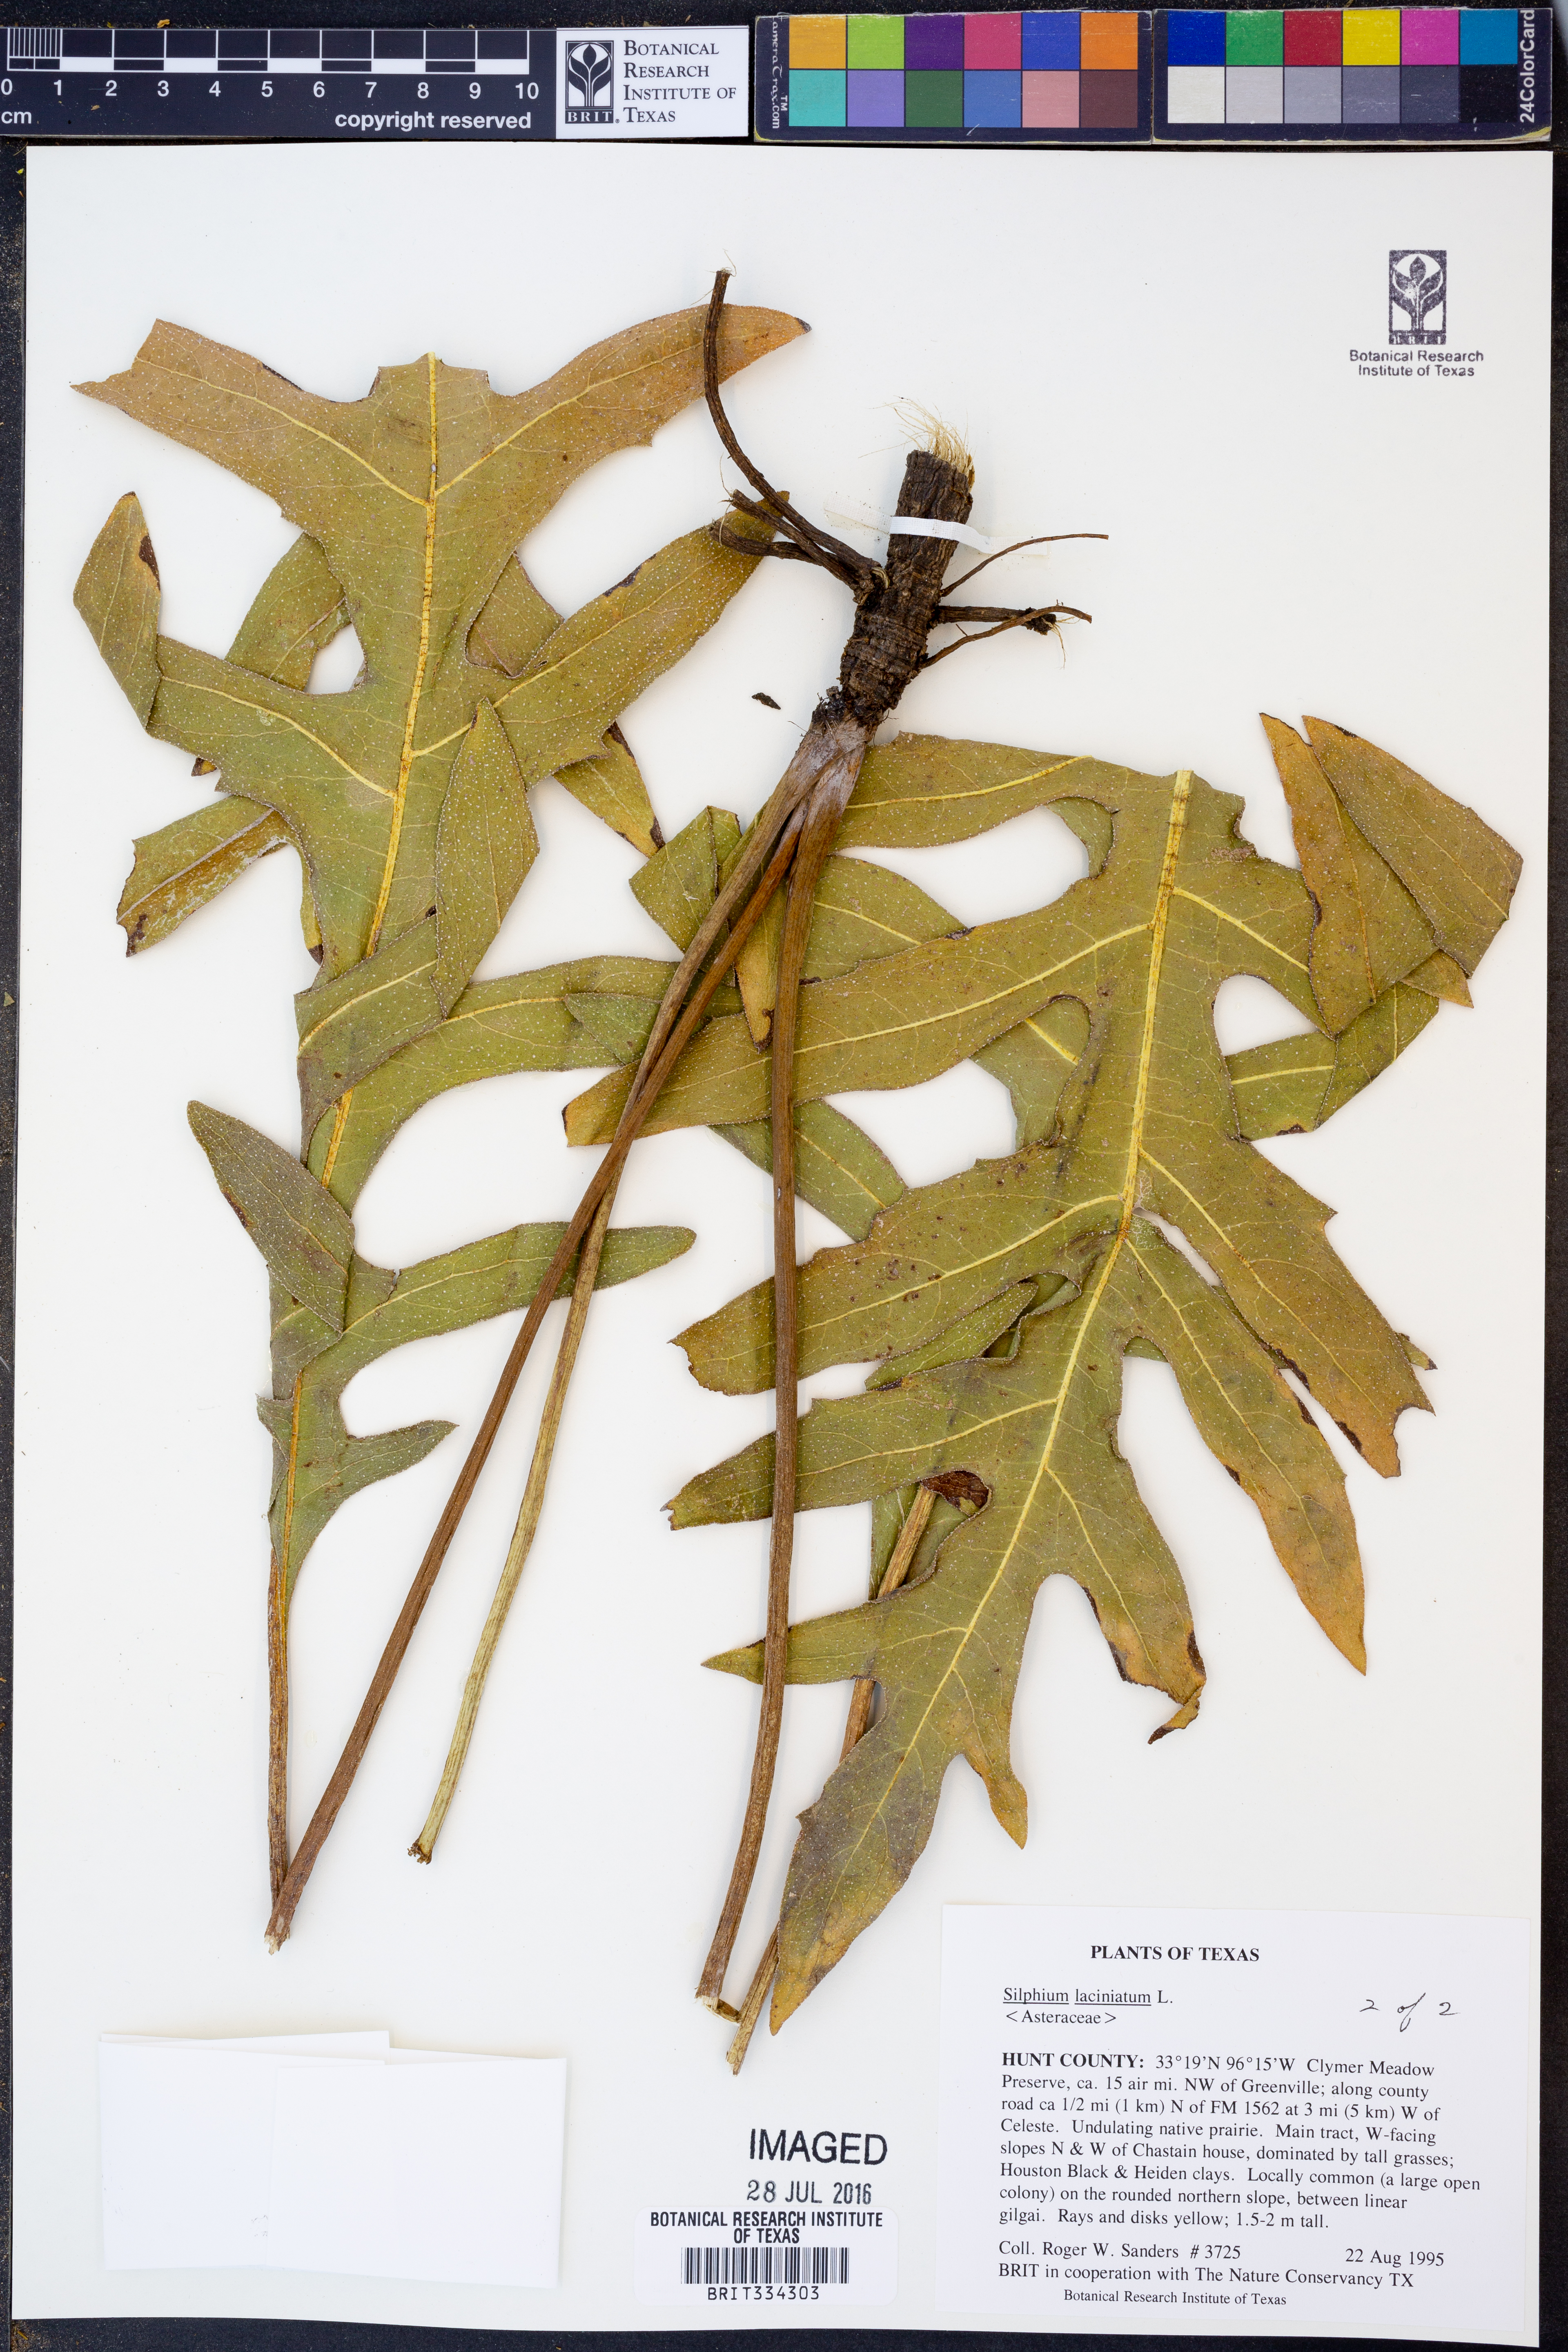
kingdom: Plantae
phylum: Tracheophyta
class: Magnoliopsida
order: Asterales
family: Asteraceae
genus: Silphium
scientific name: Silphium laciniatum
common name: Polarplant
